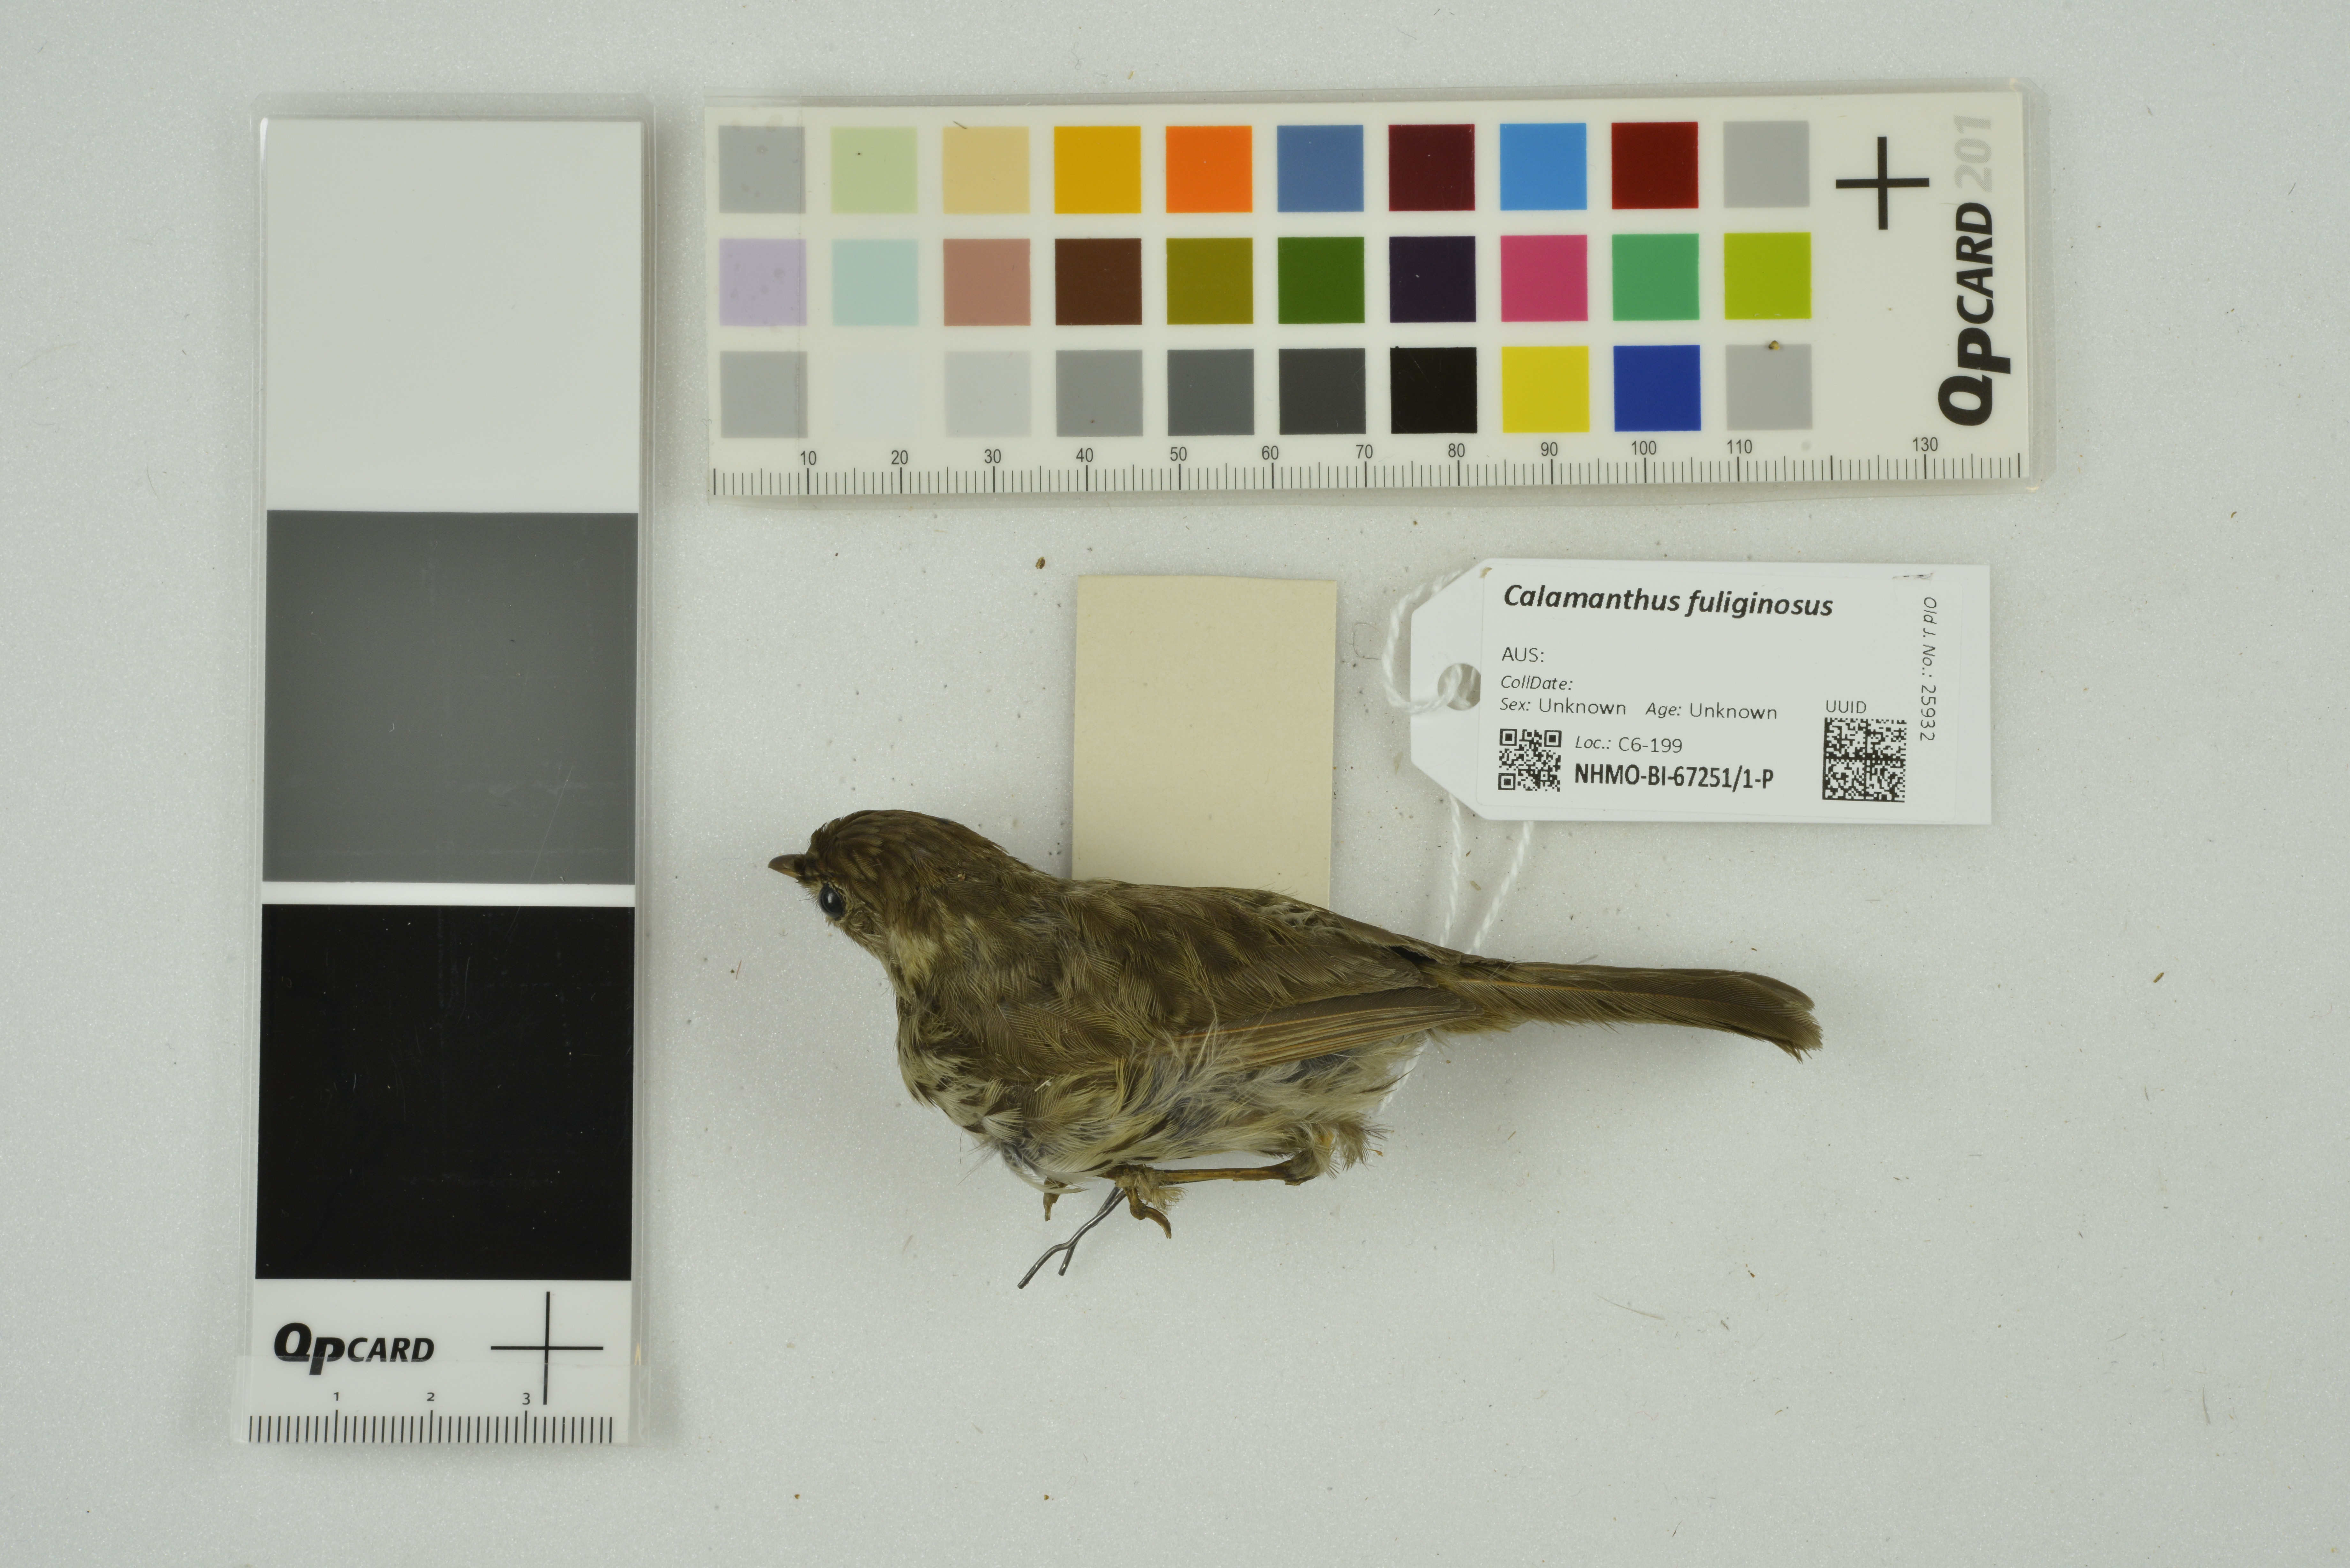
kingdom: Animalia
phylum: Chordata
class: Aves
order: Passeriformes
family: Acanthizidae
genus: Calamanthus
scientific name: Calamanthus fuliginosus
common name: Striated fieldwren
